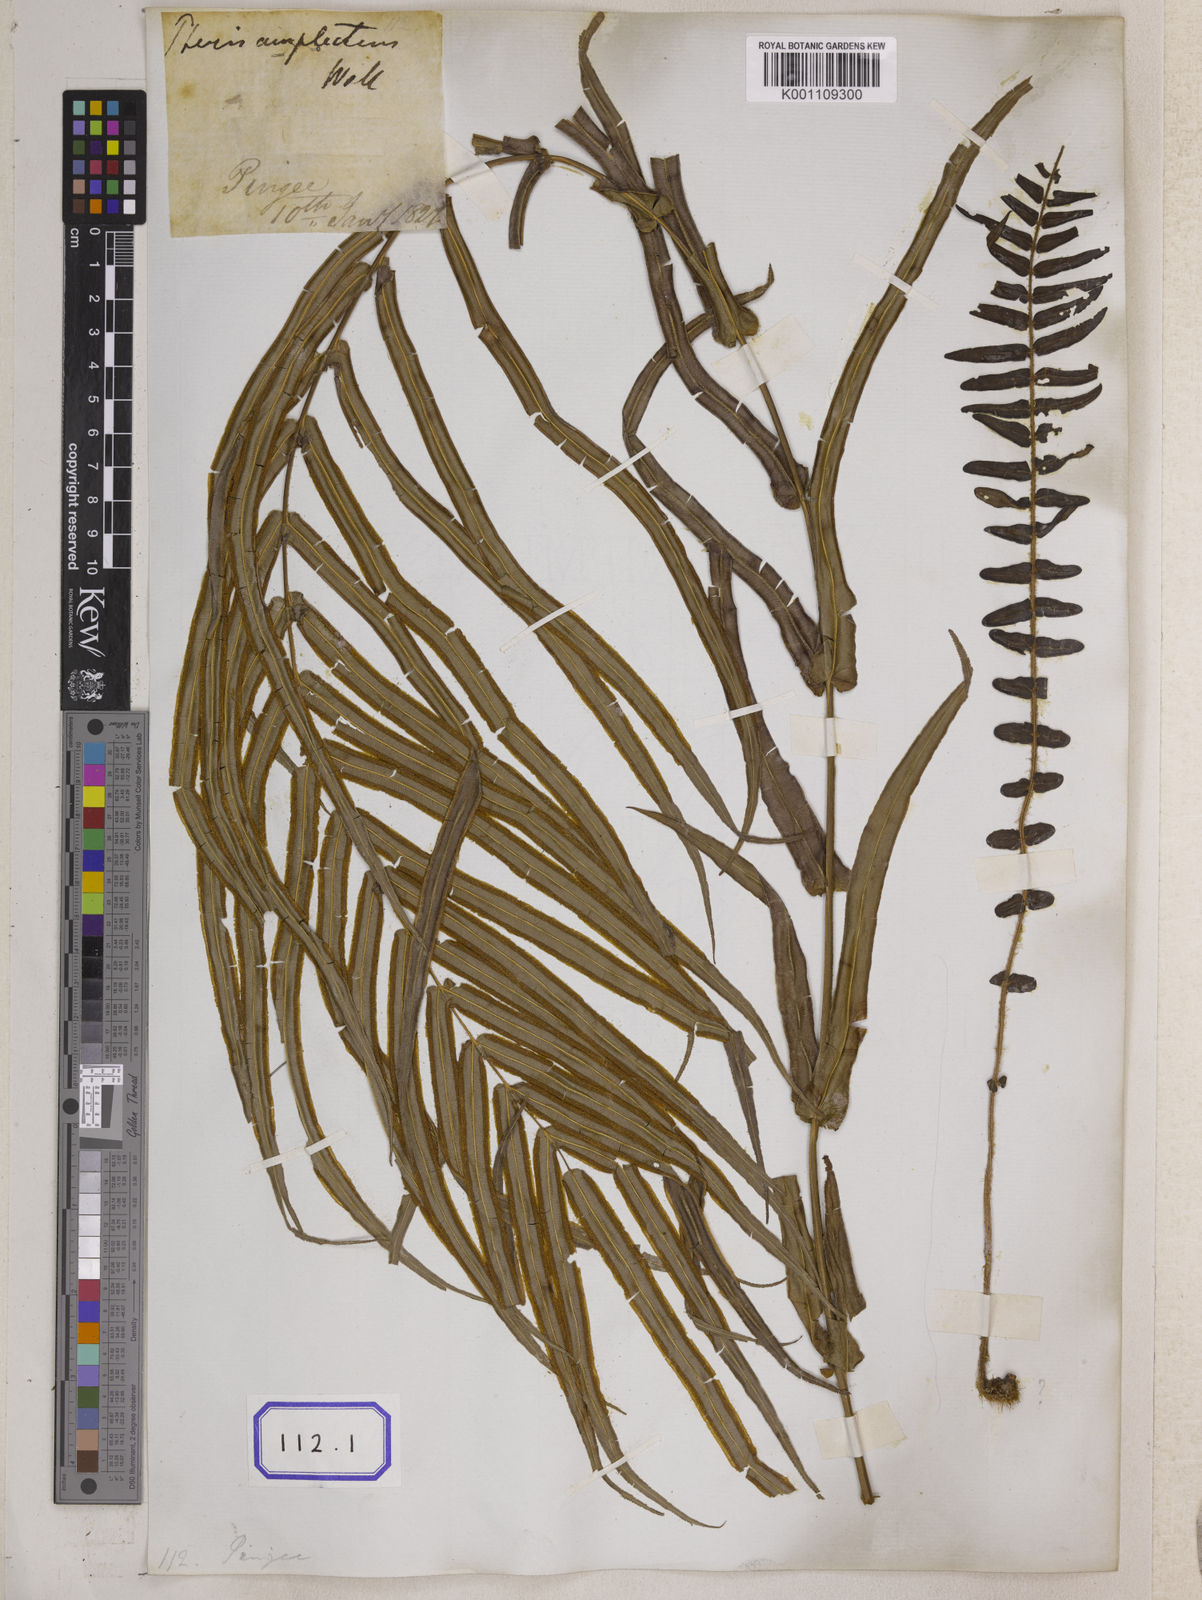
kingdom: Plantae
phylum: Tracheophyta
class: Polypodiopsida
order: Polypodiales
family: Pteridaceae
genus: Pteris
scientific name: Pteris vittata
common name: Ladder brake
